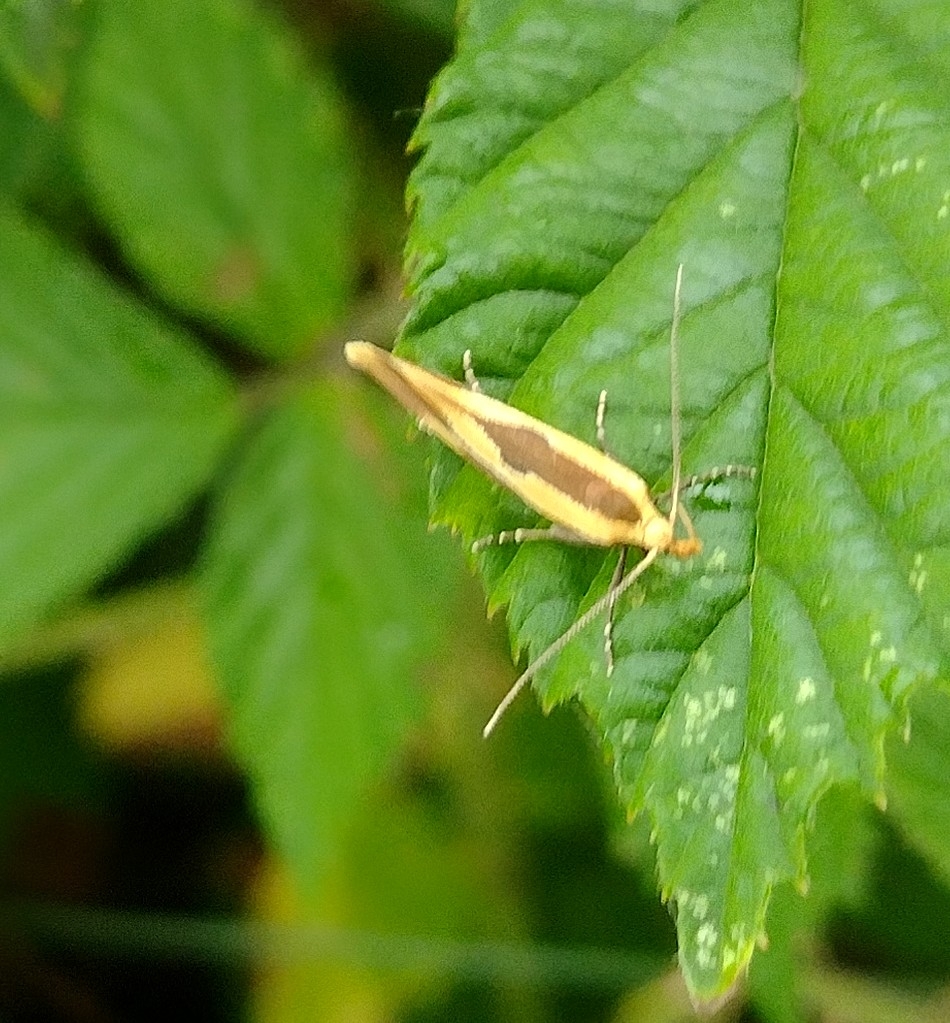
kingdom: Animalia
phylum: Arthropoda
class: Insecta
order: Lepidoptera
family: Oecophoridae
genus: Harpella
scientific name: Harpella forficella
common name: Kæmpeprydvinge
